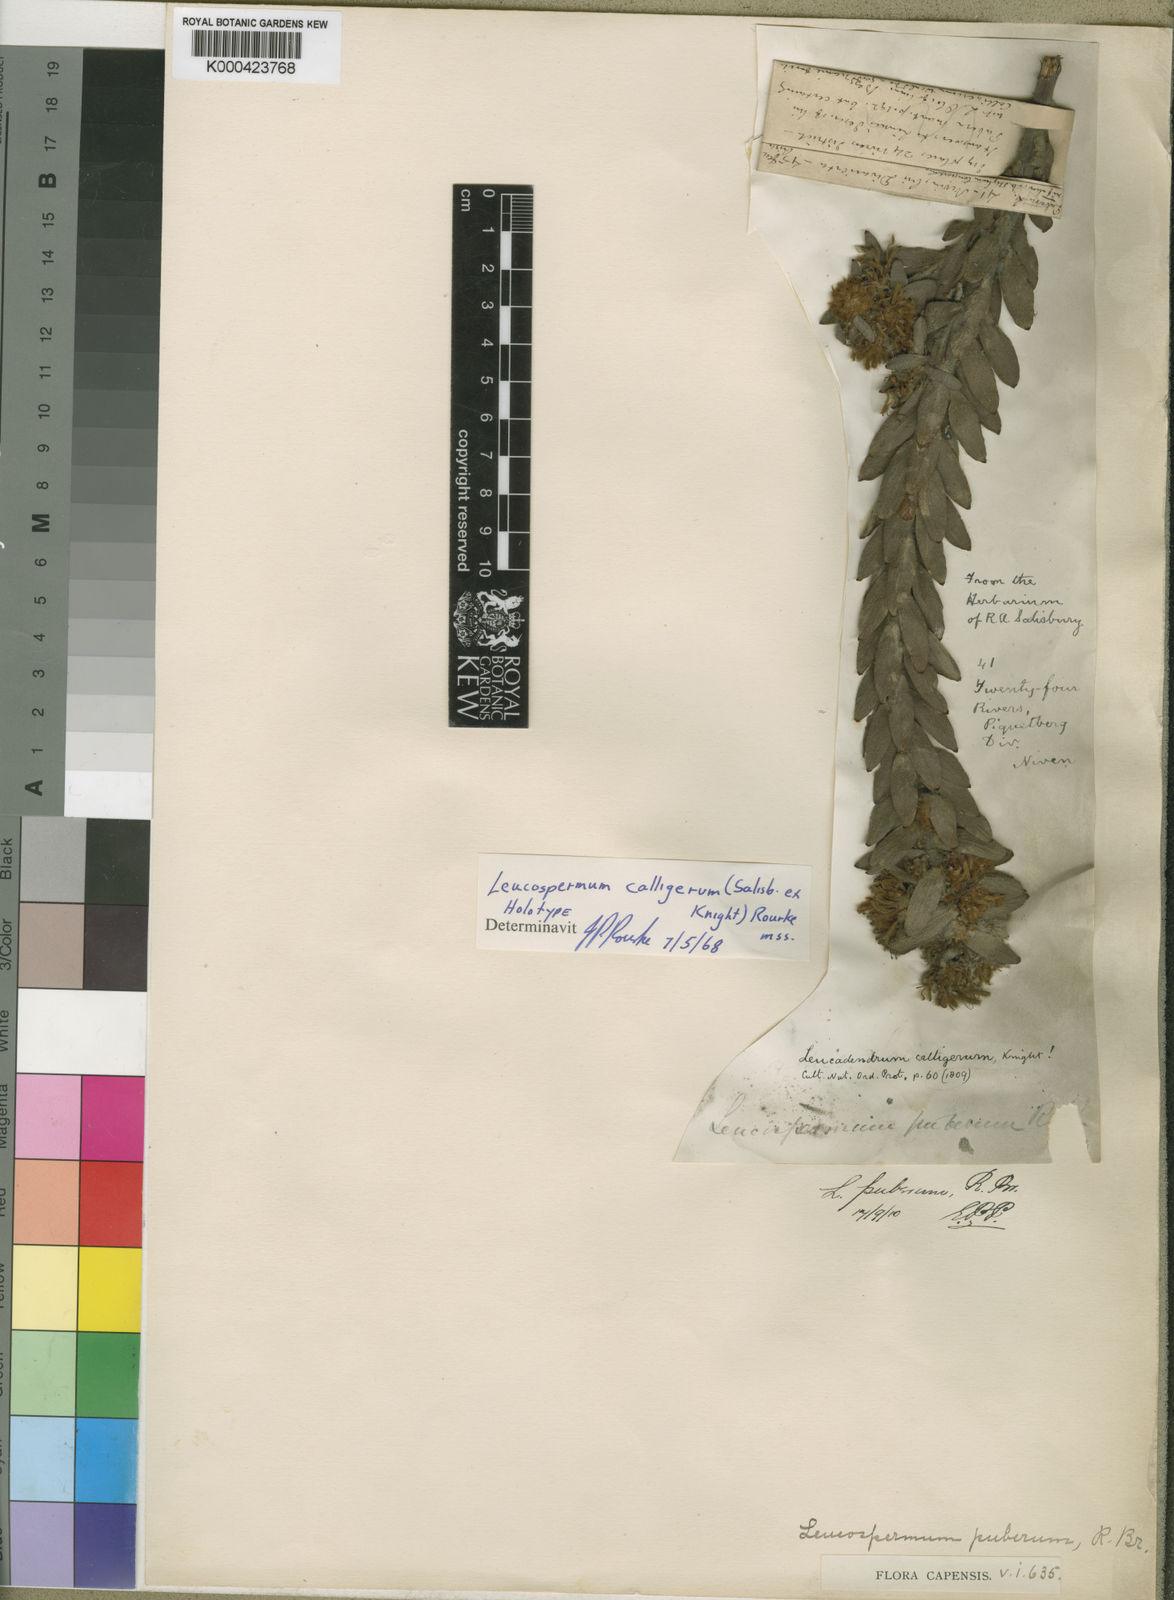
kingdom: Plantae
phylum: Tracheophyta
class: Magnoliopsida
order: Proteales
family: Proteaceae
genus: Leucospermum
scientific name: Leucospermum calligerum
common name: Arid pincushion
